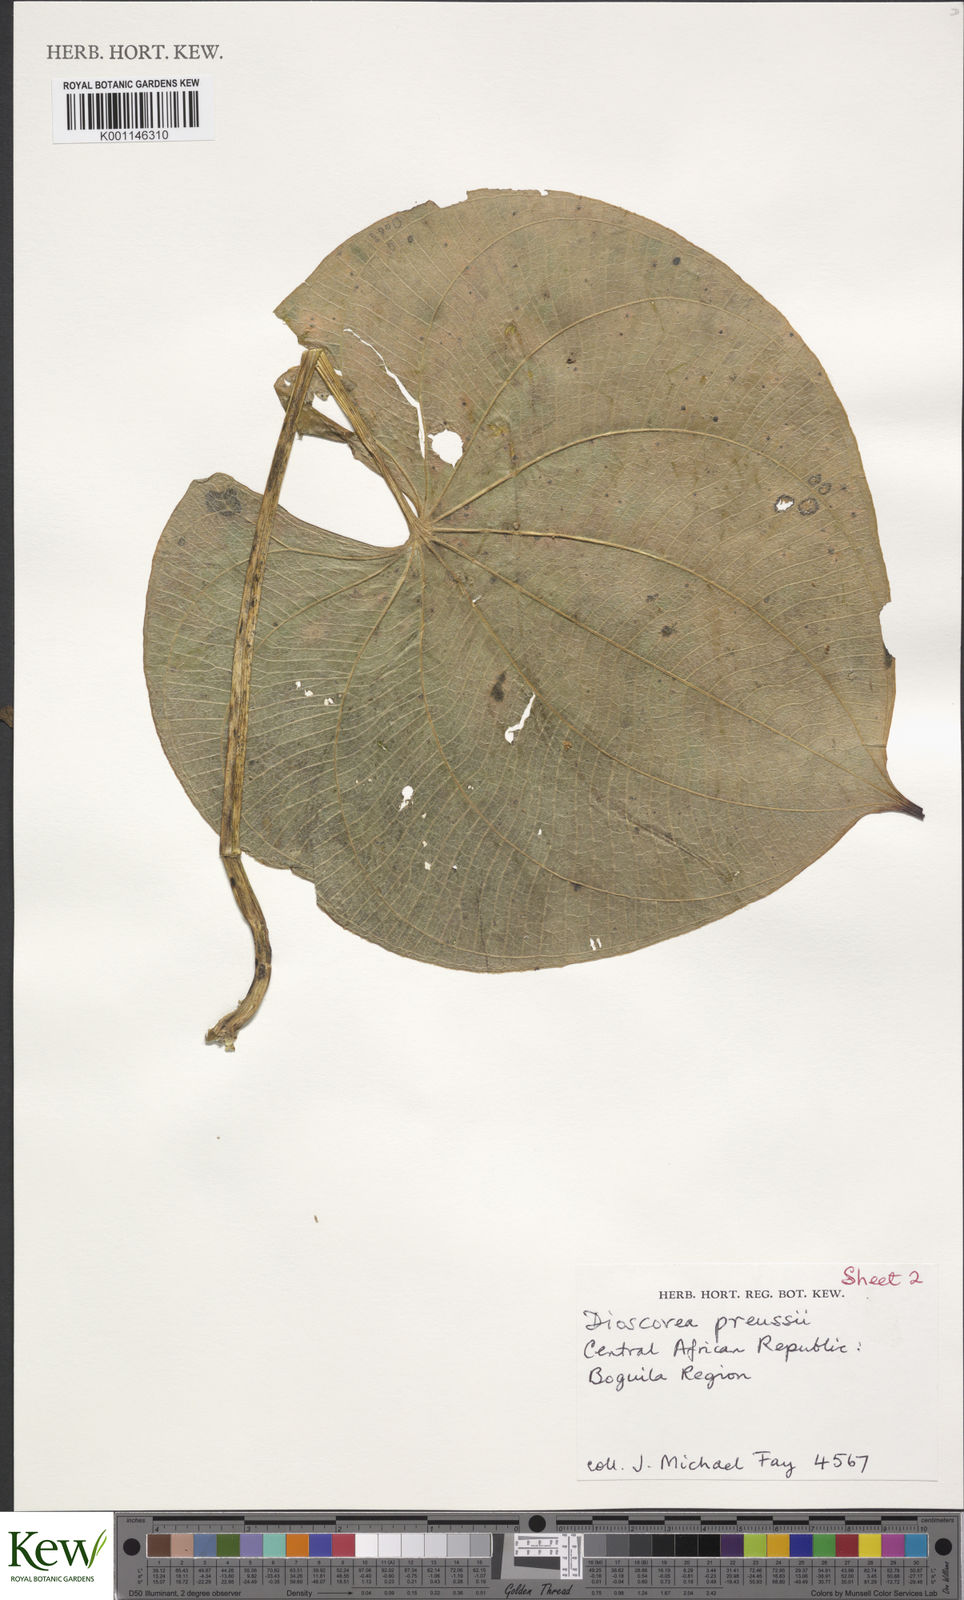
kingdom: Plantae
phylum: Tracheophyta
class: Liliopsida
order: Dioscoreales
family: Dioscoreaceae
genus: Dioscorea
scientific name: Dioscorea preussii
